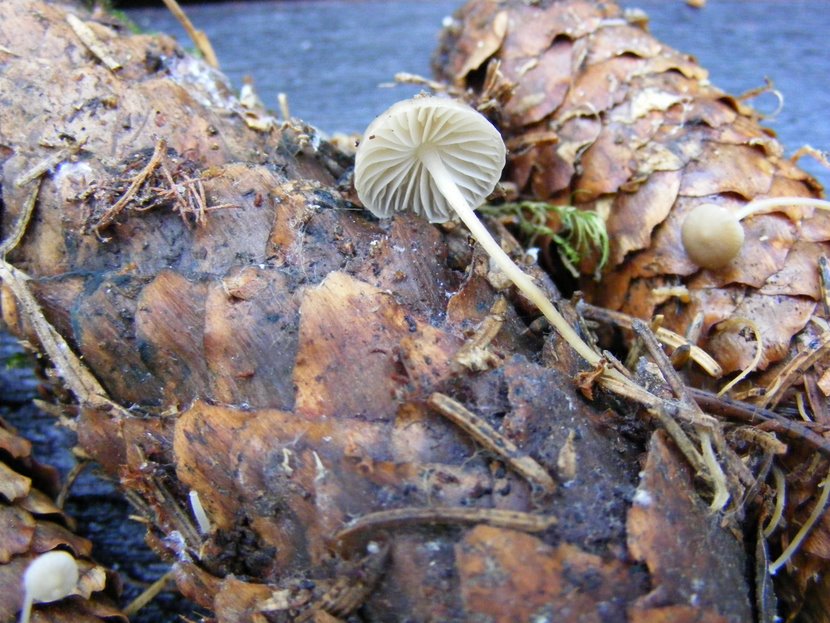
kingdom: Fungi
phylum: Basidiomycota
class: Agaricomycetes
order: Agaricales
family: Physalacriaceae
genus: Strobilurus
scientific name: Strobilurus esculentus
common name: gran-koglehat
